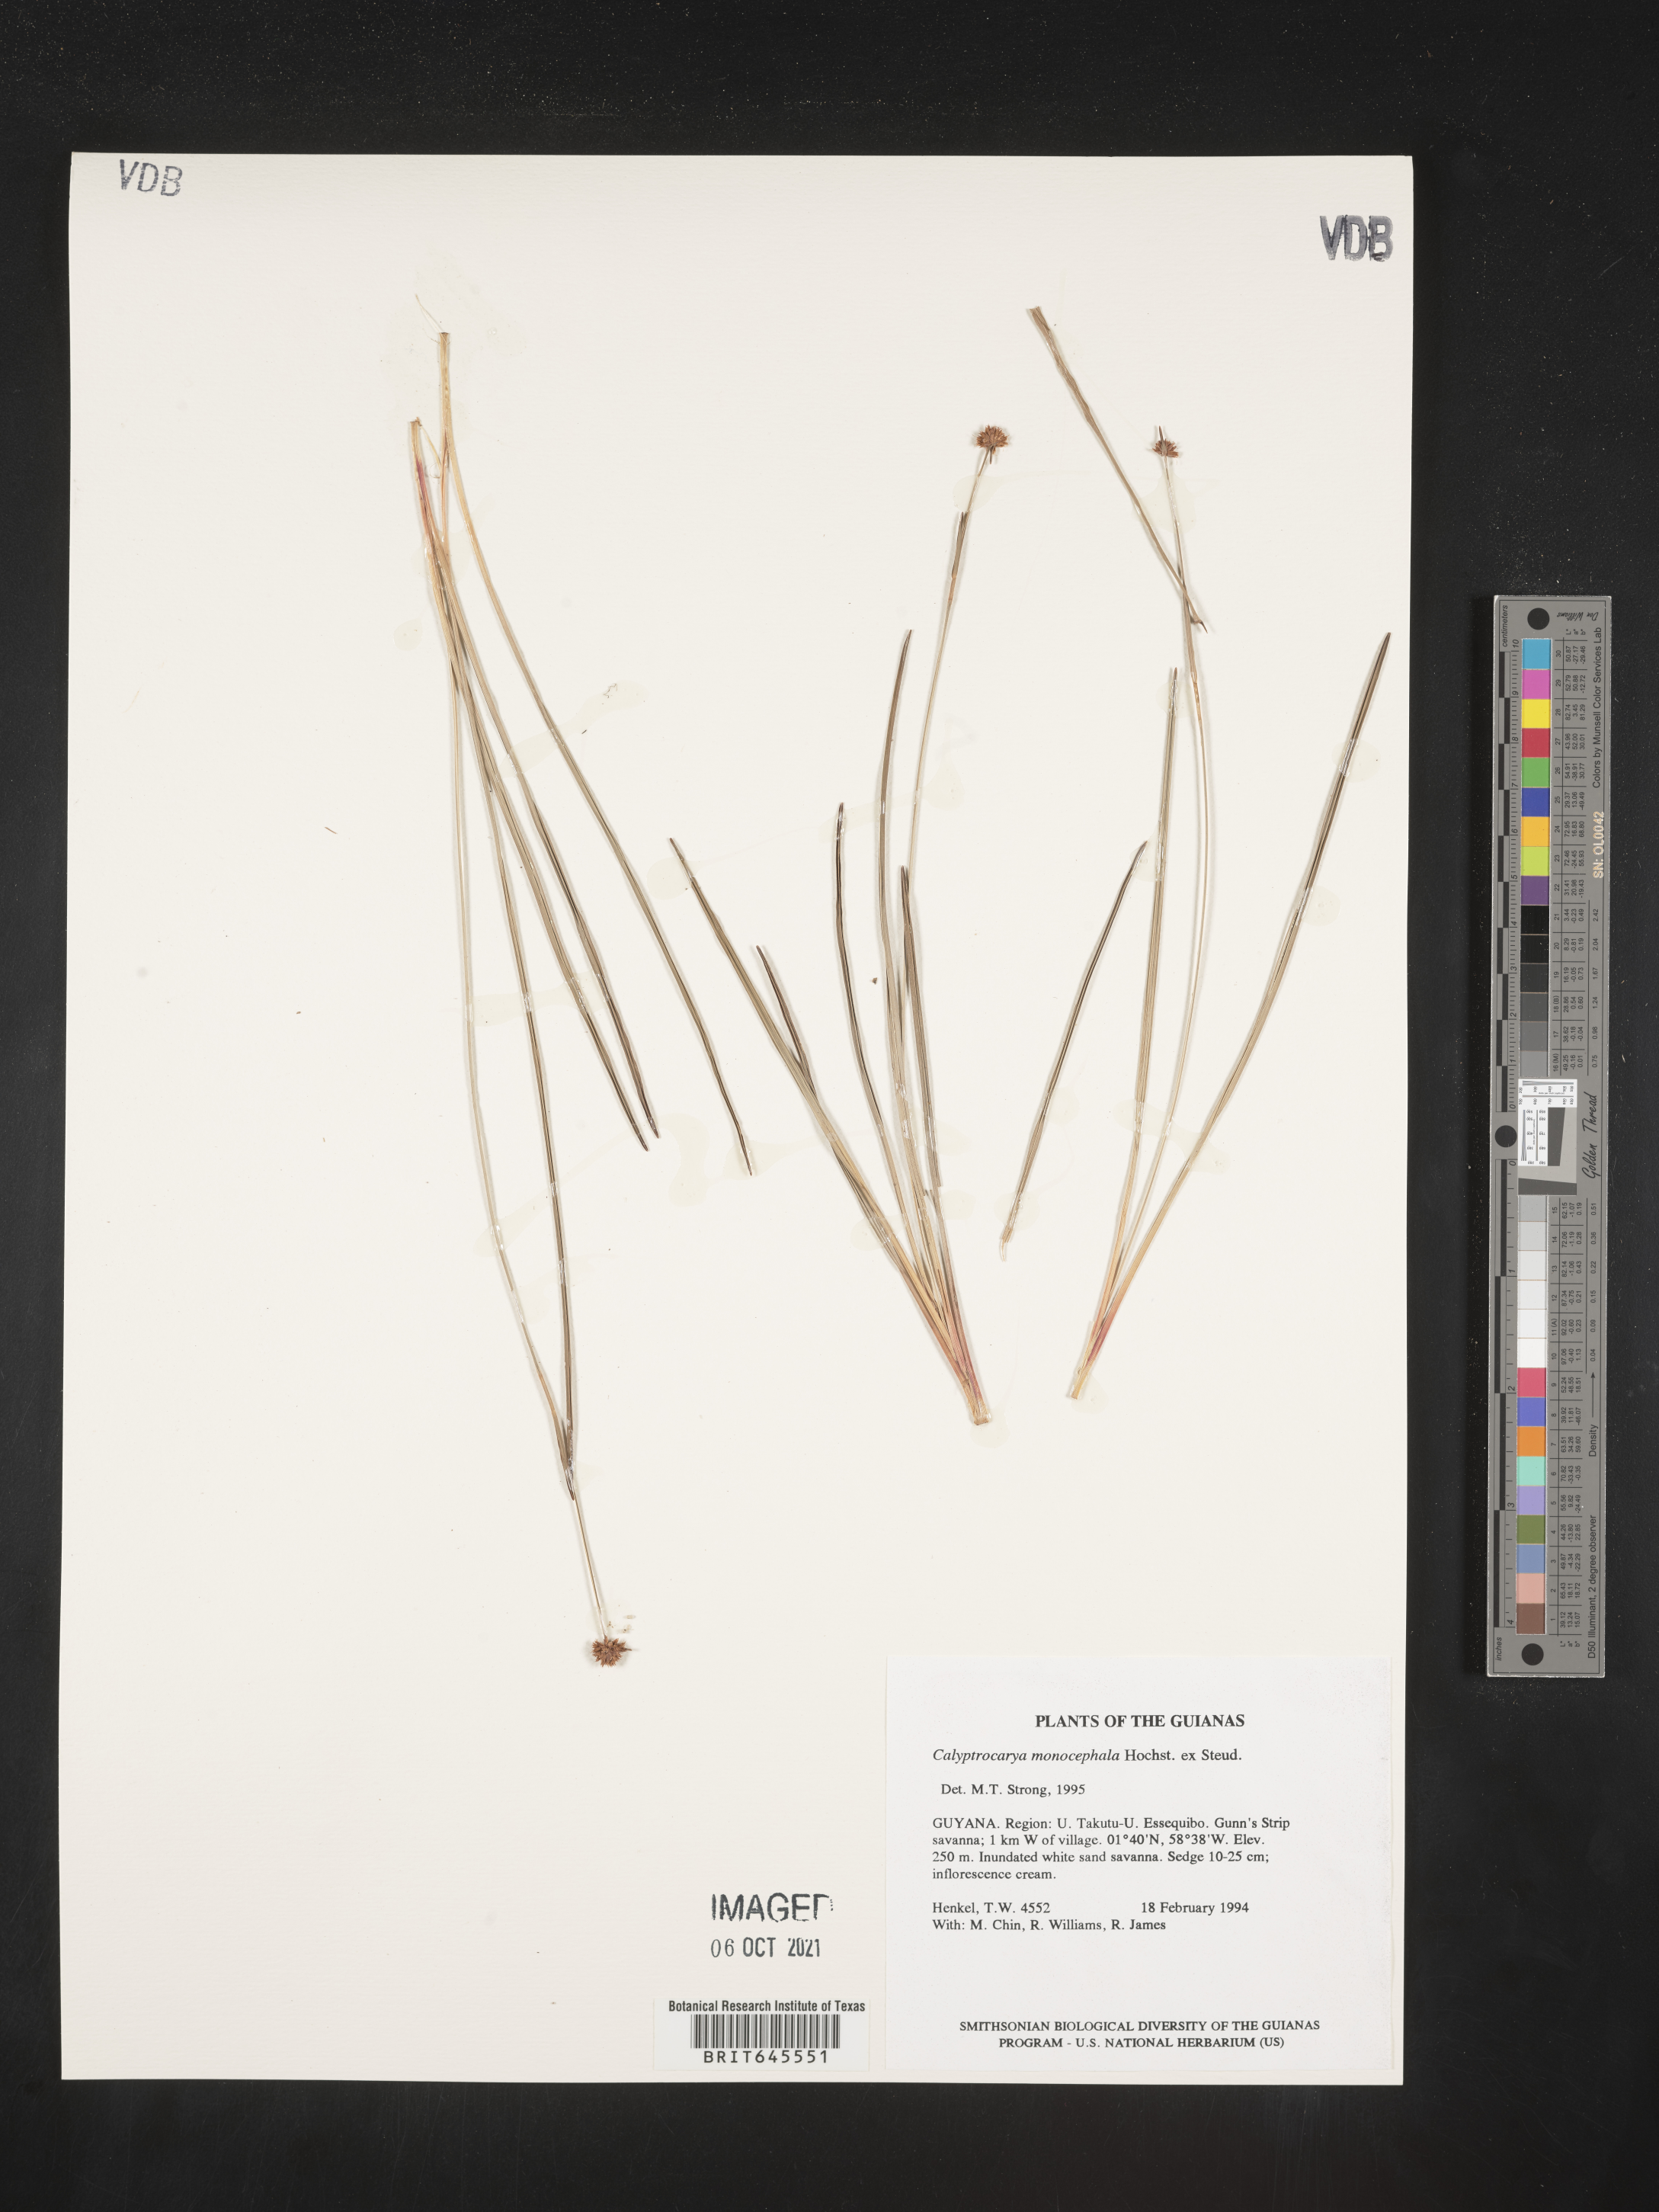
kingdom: Plantae
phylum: Tracheophyta
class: Liliopsida
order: Poales
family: Cyperaceae
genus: Calyptrocarya
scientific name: Calyptrocarya monocephala
